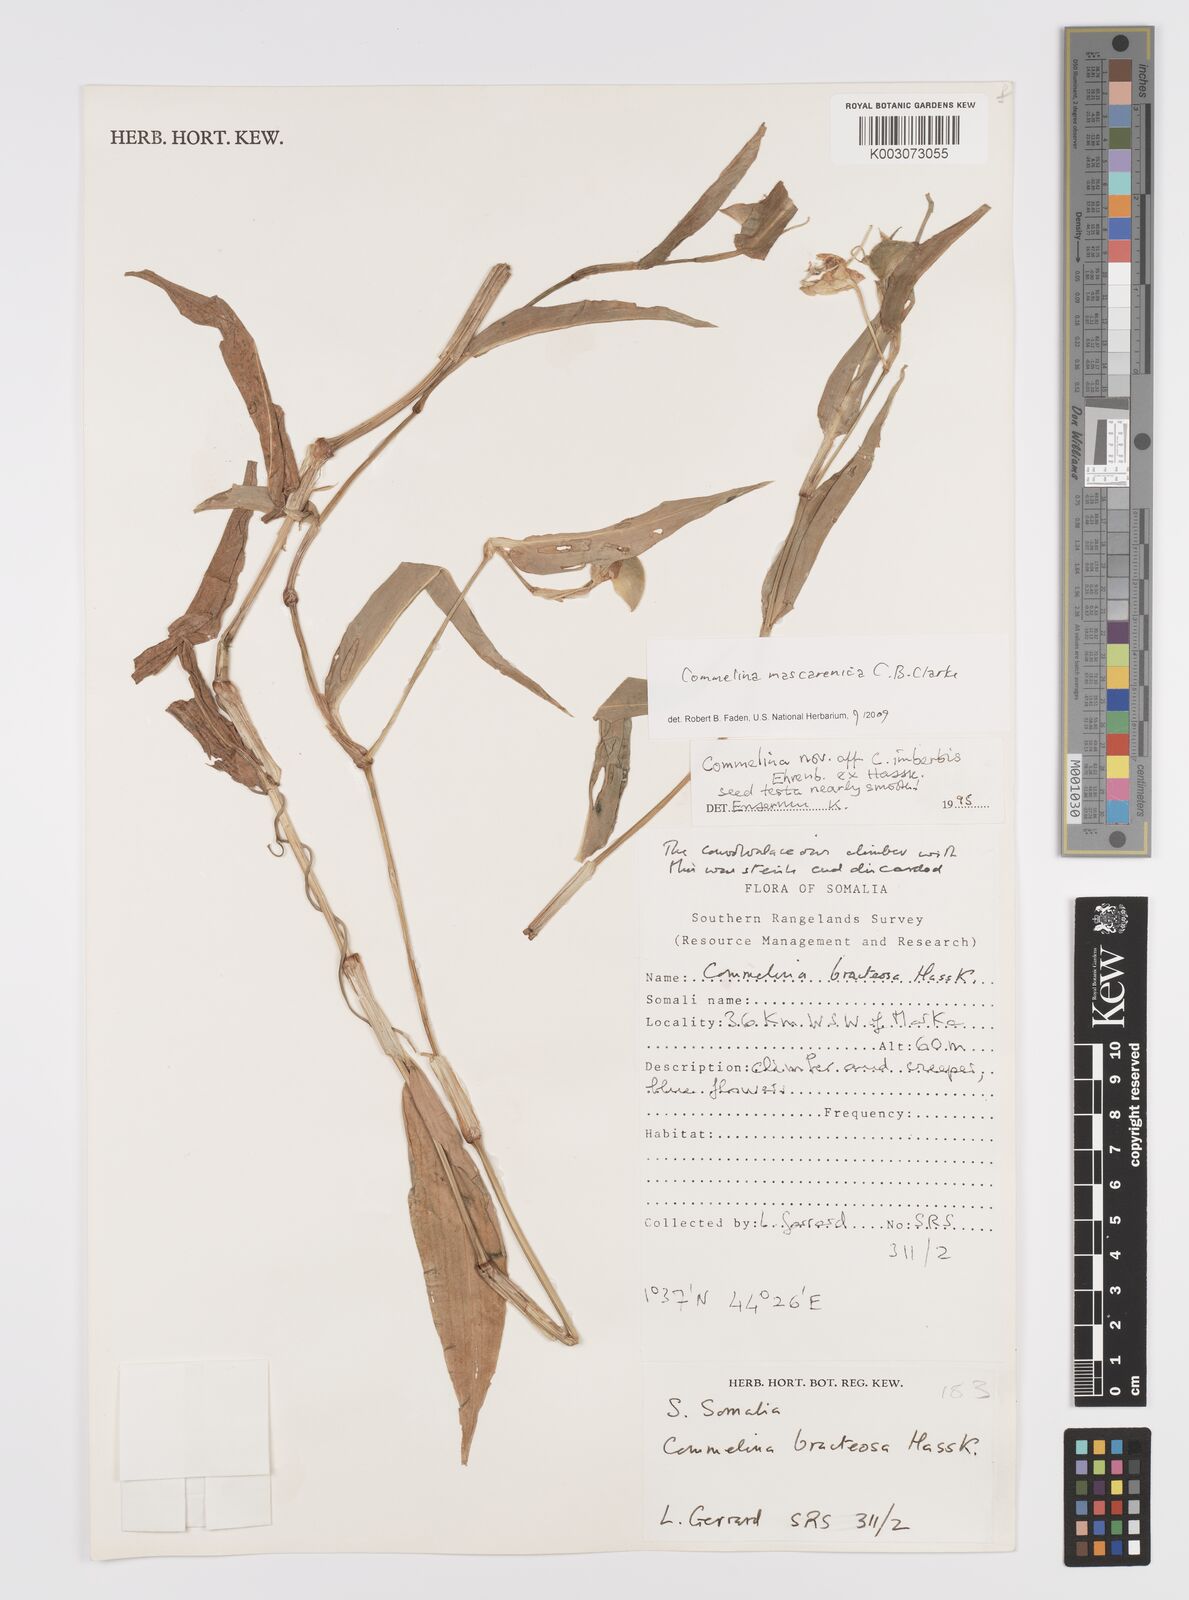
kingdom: Plantae
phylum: Tracheophyta
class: Liliopsida
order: Commelinales
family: Commelinaceae
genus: Commelina
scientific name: Commelina mascarenica
